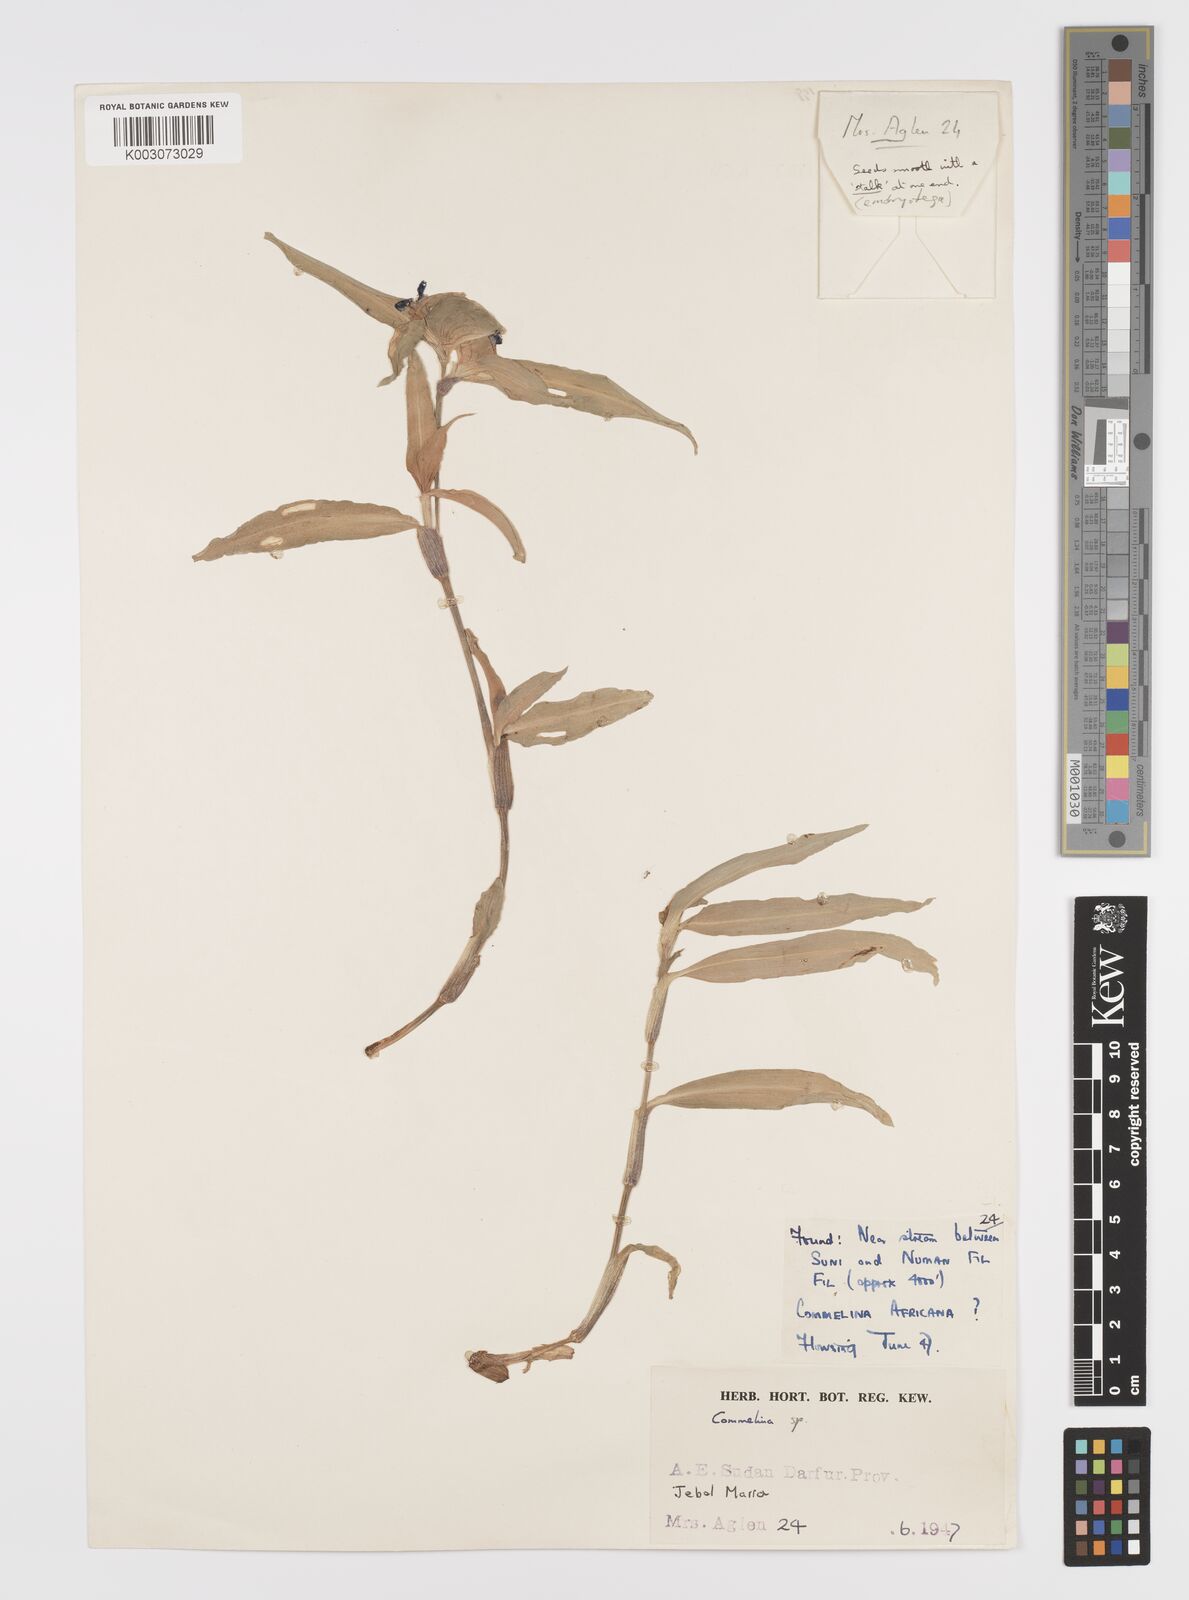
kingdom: Plantae
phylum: Tracheophyta
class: Liliopsida
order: Commelinales
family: Commelinaceae
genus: Commelina
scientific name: Commelina bracteosa
